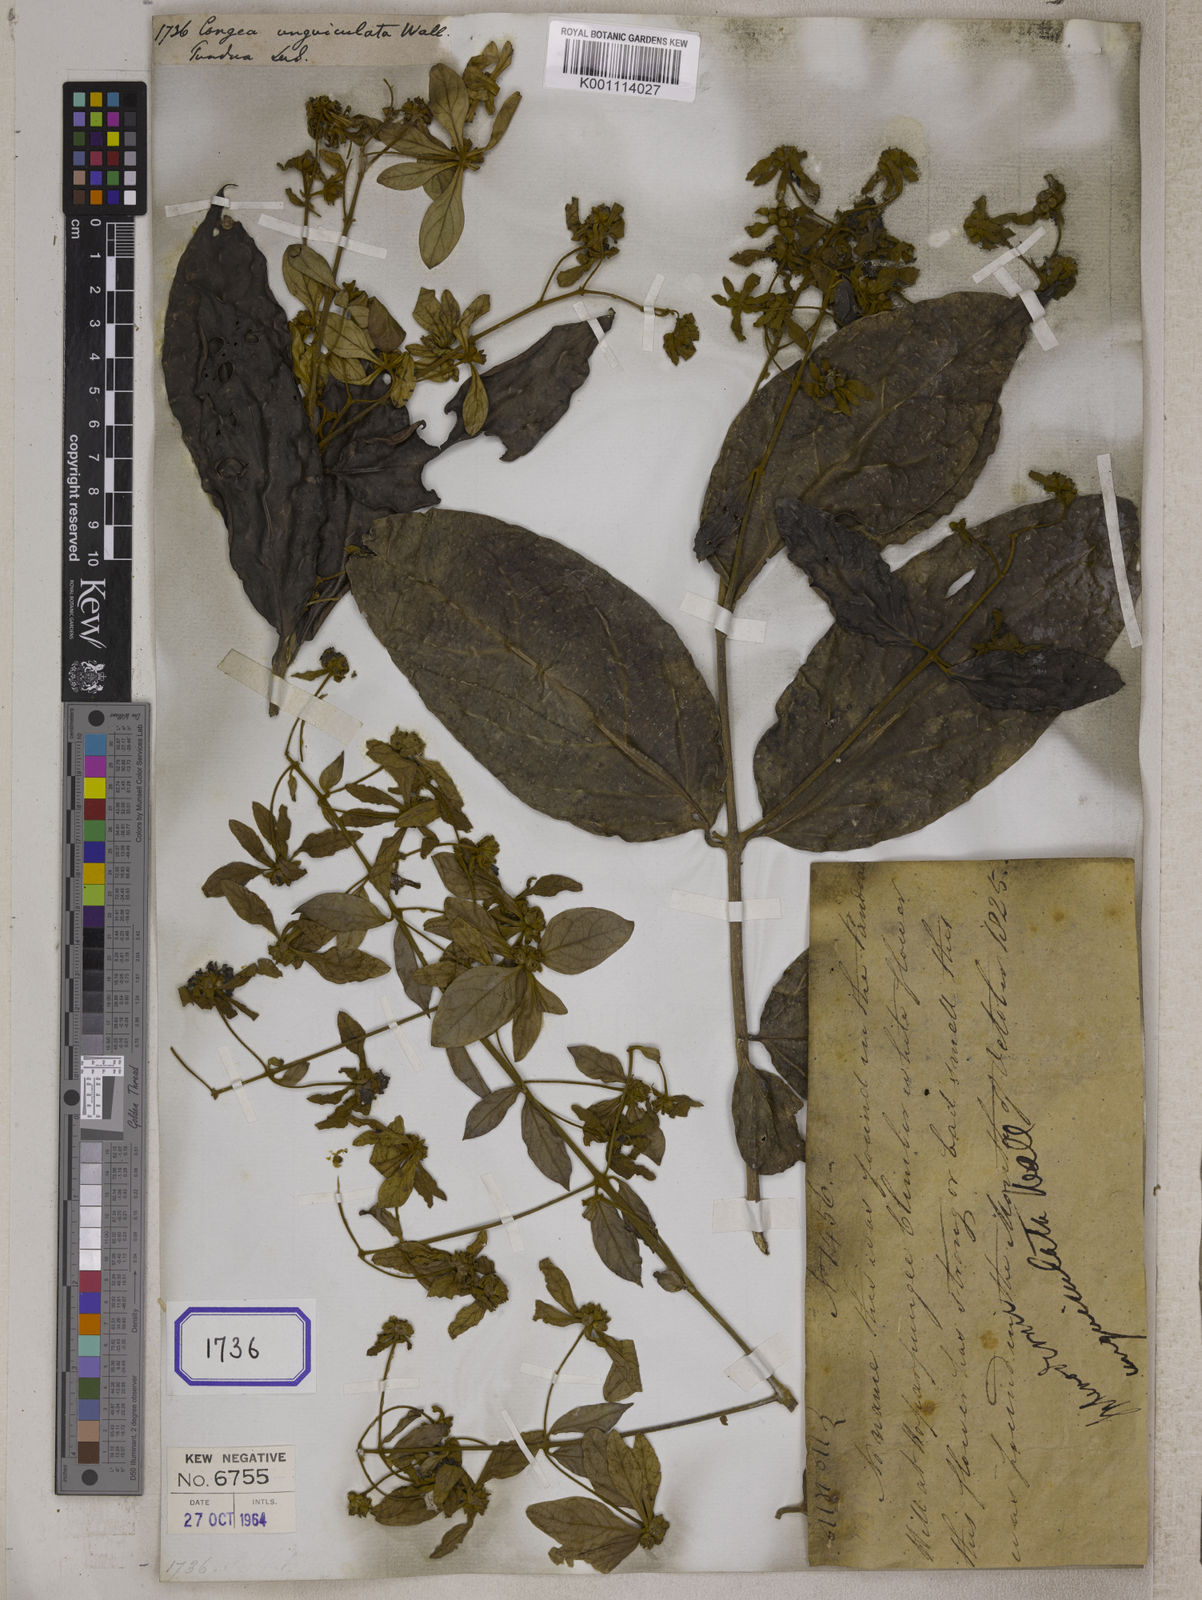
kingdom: Plantae
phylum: Tracheophyta
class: Magnoliopsida
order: Lamiales
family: Lamiaceae
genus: Sphenodesme
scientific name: Sphenodesme involucrata
